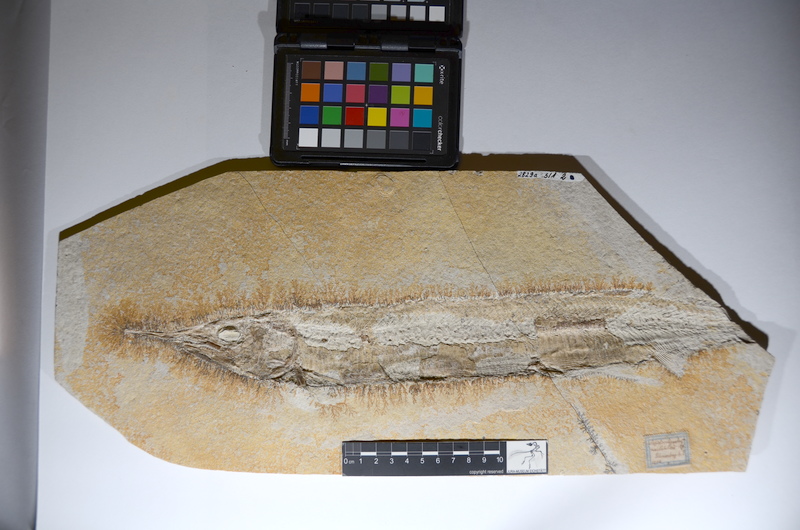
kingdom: Animalia
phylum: Chordata
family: Aspidorhynchidae
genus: Aspidorhynchus
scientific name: Aspidorhynchus acutirostris
